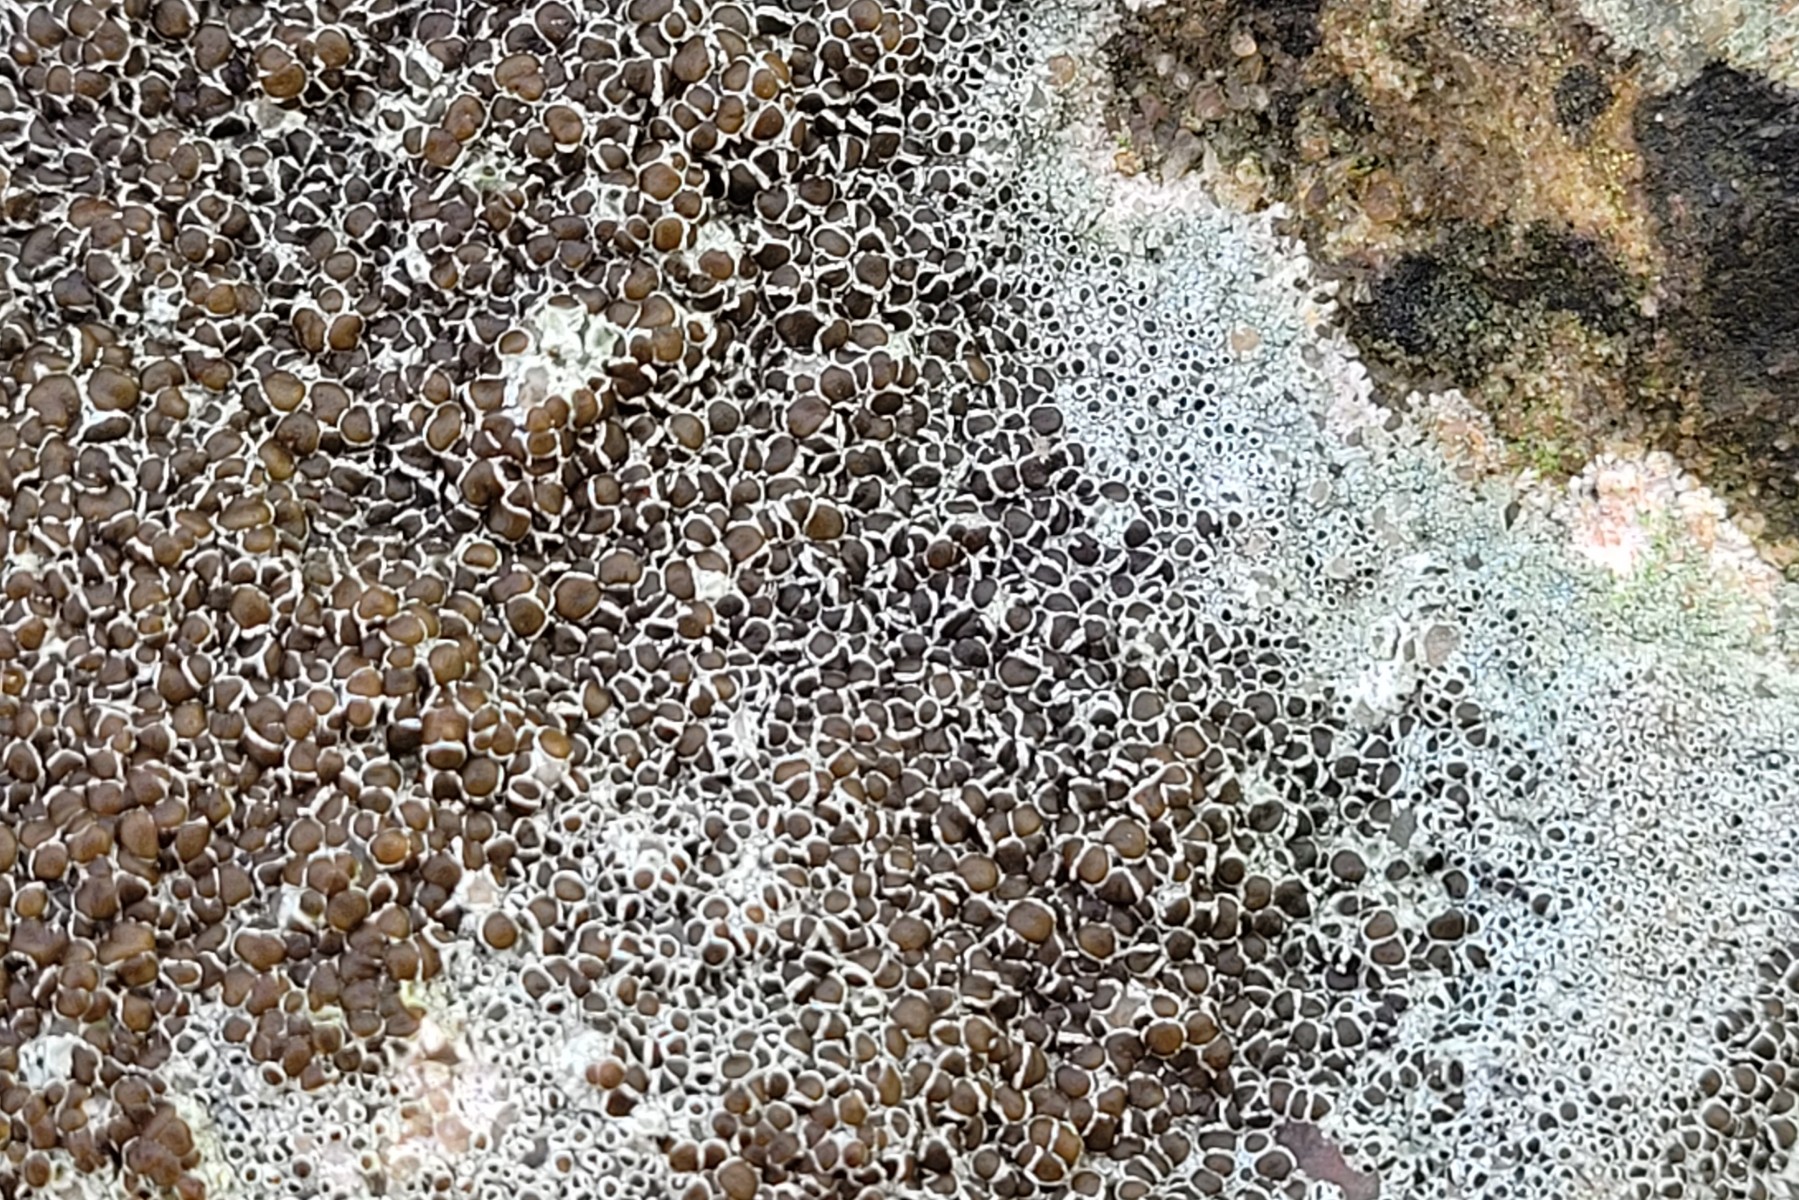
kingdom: Fungi
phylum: Ascomycota
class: Lecanoromycetes
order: Lecanorales
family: Lecanoraceae
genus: Lecanora
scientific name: Lecanora campestris
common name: mur-kantskivelav
